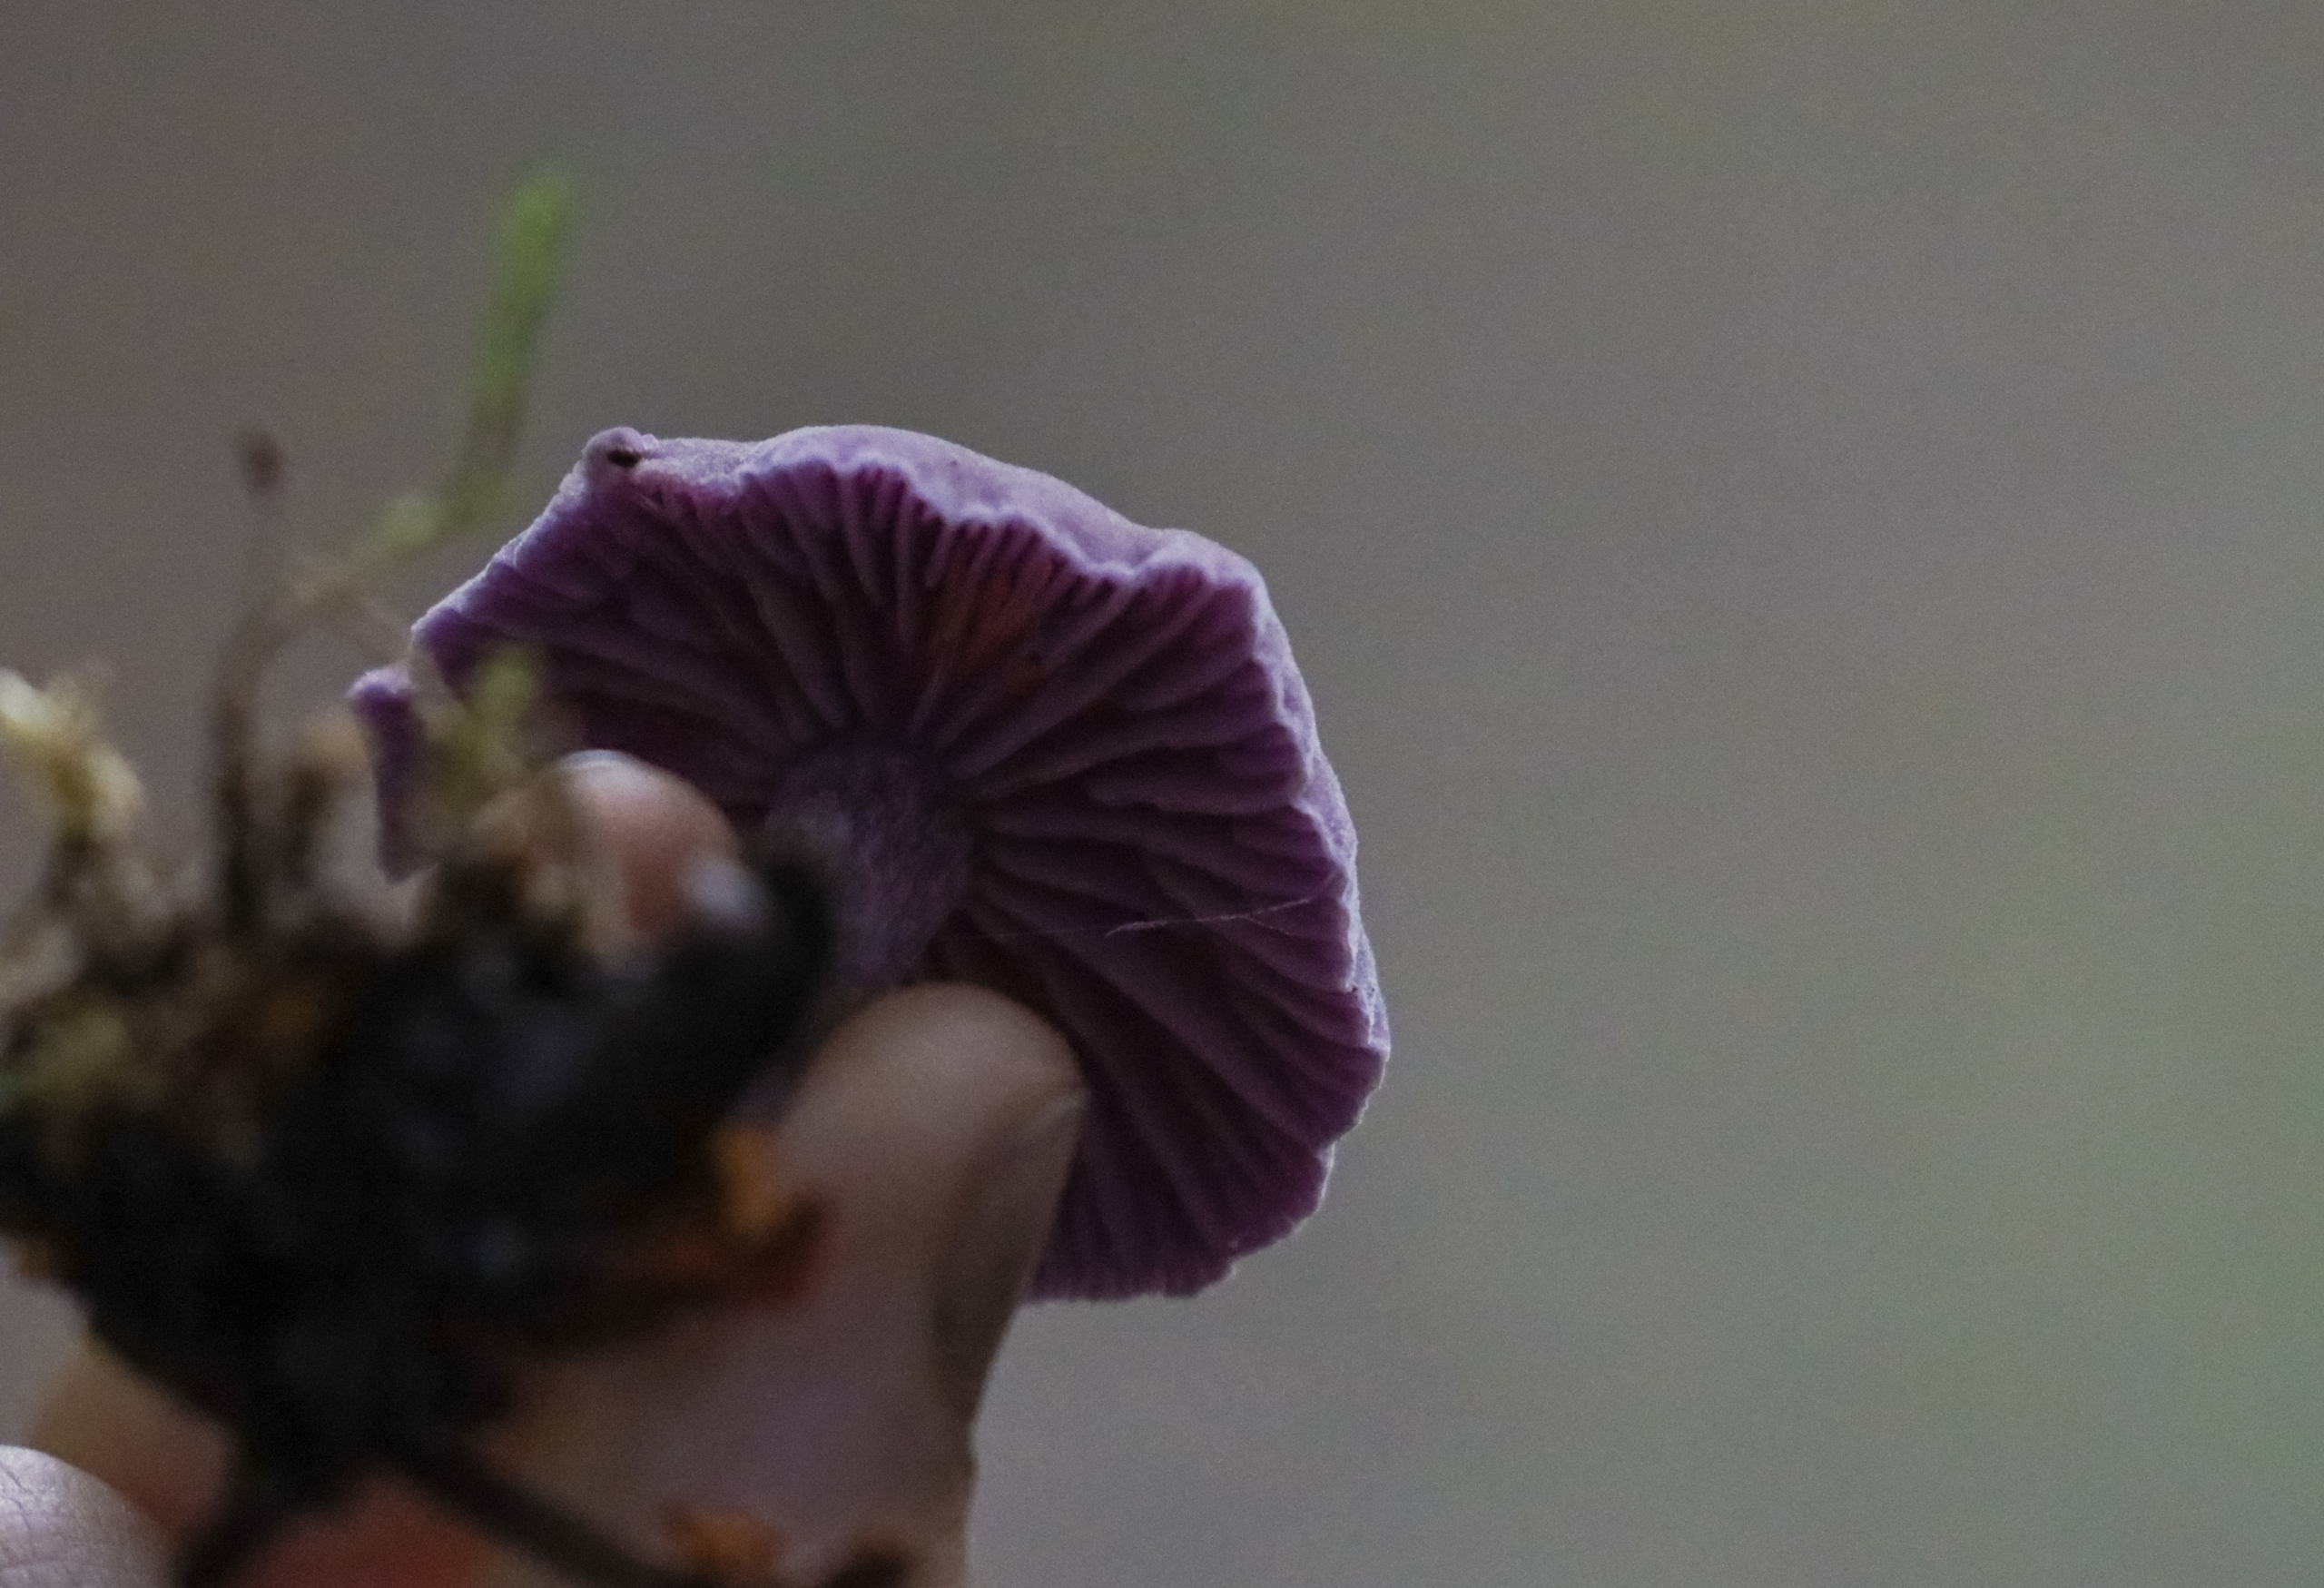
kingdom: Fungi
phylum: Basidiomycota
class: Agaricomycetes
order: Agaricales
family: Hydnangiaceae
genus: Laccaria
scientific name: Laccaria amethystina
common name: Violet ametysthat
